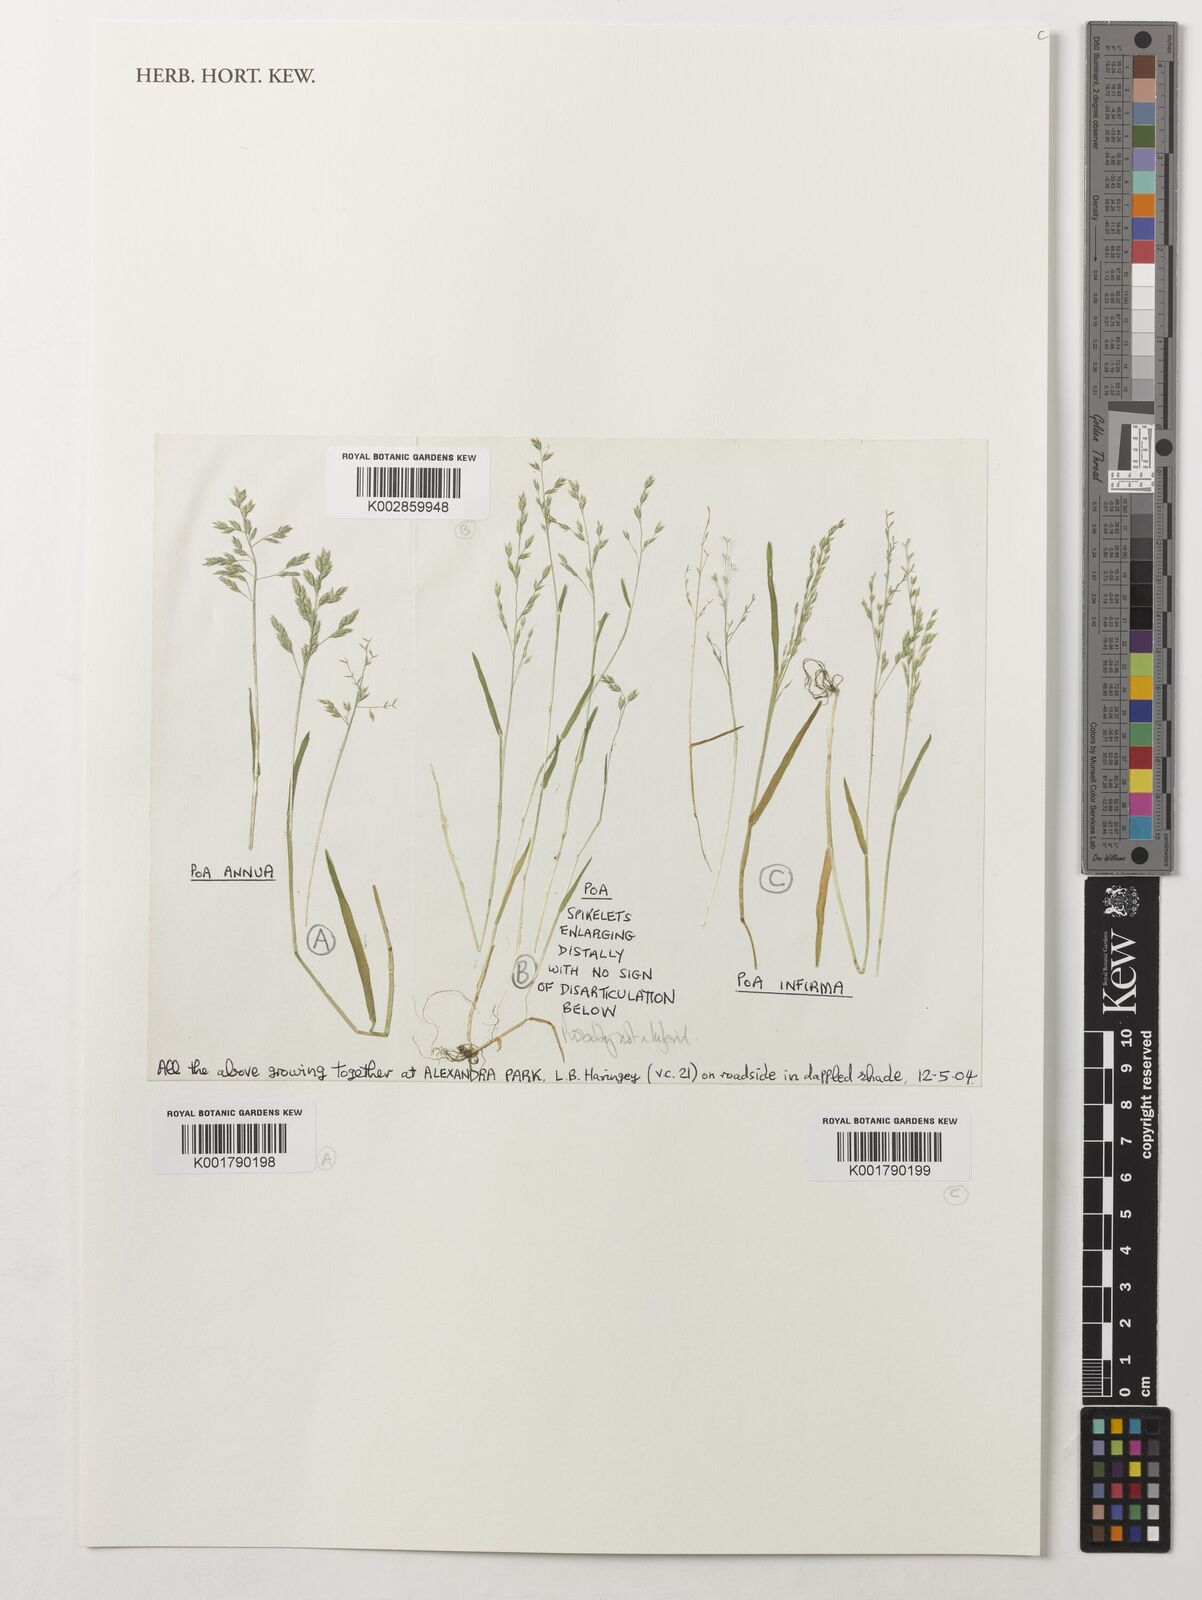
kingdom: Plantae
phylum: Tracheophyta
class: Liliopsida
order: Poales
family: Poaceae
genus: Poa
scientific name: Poa annua
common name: Annual bluegrass
